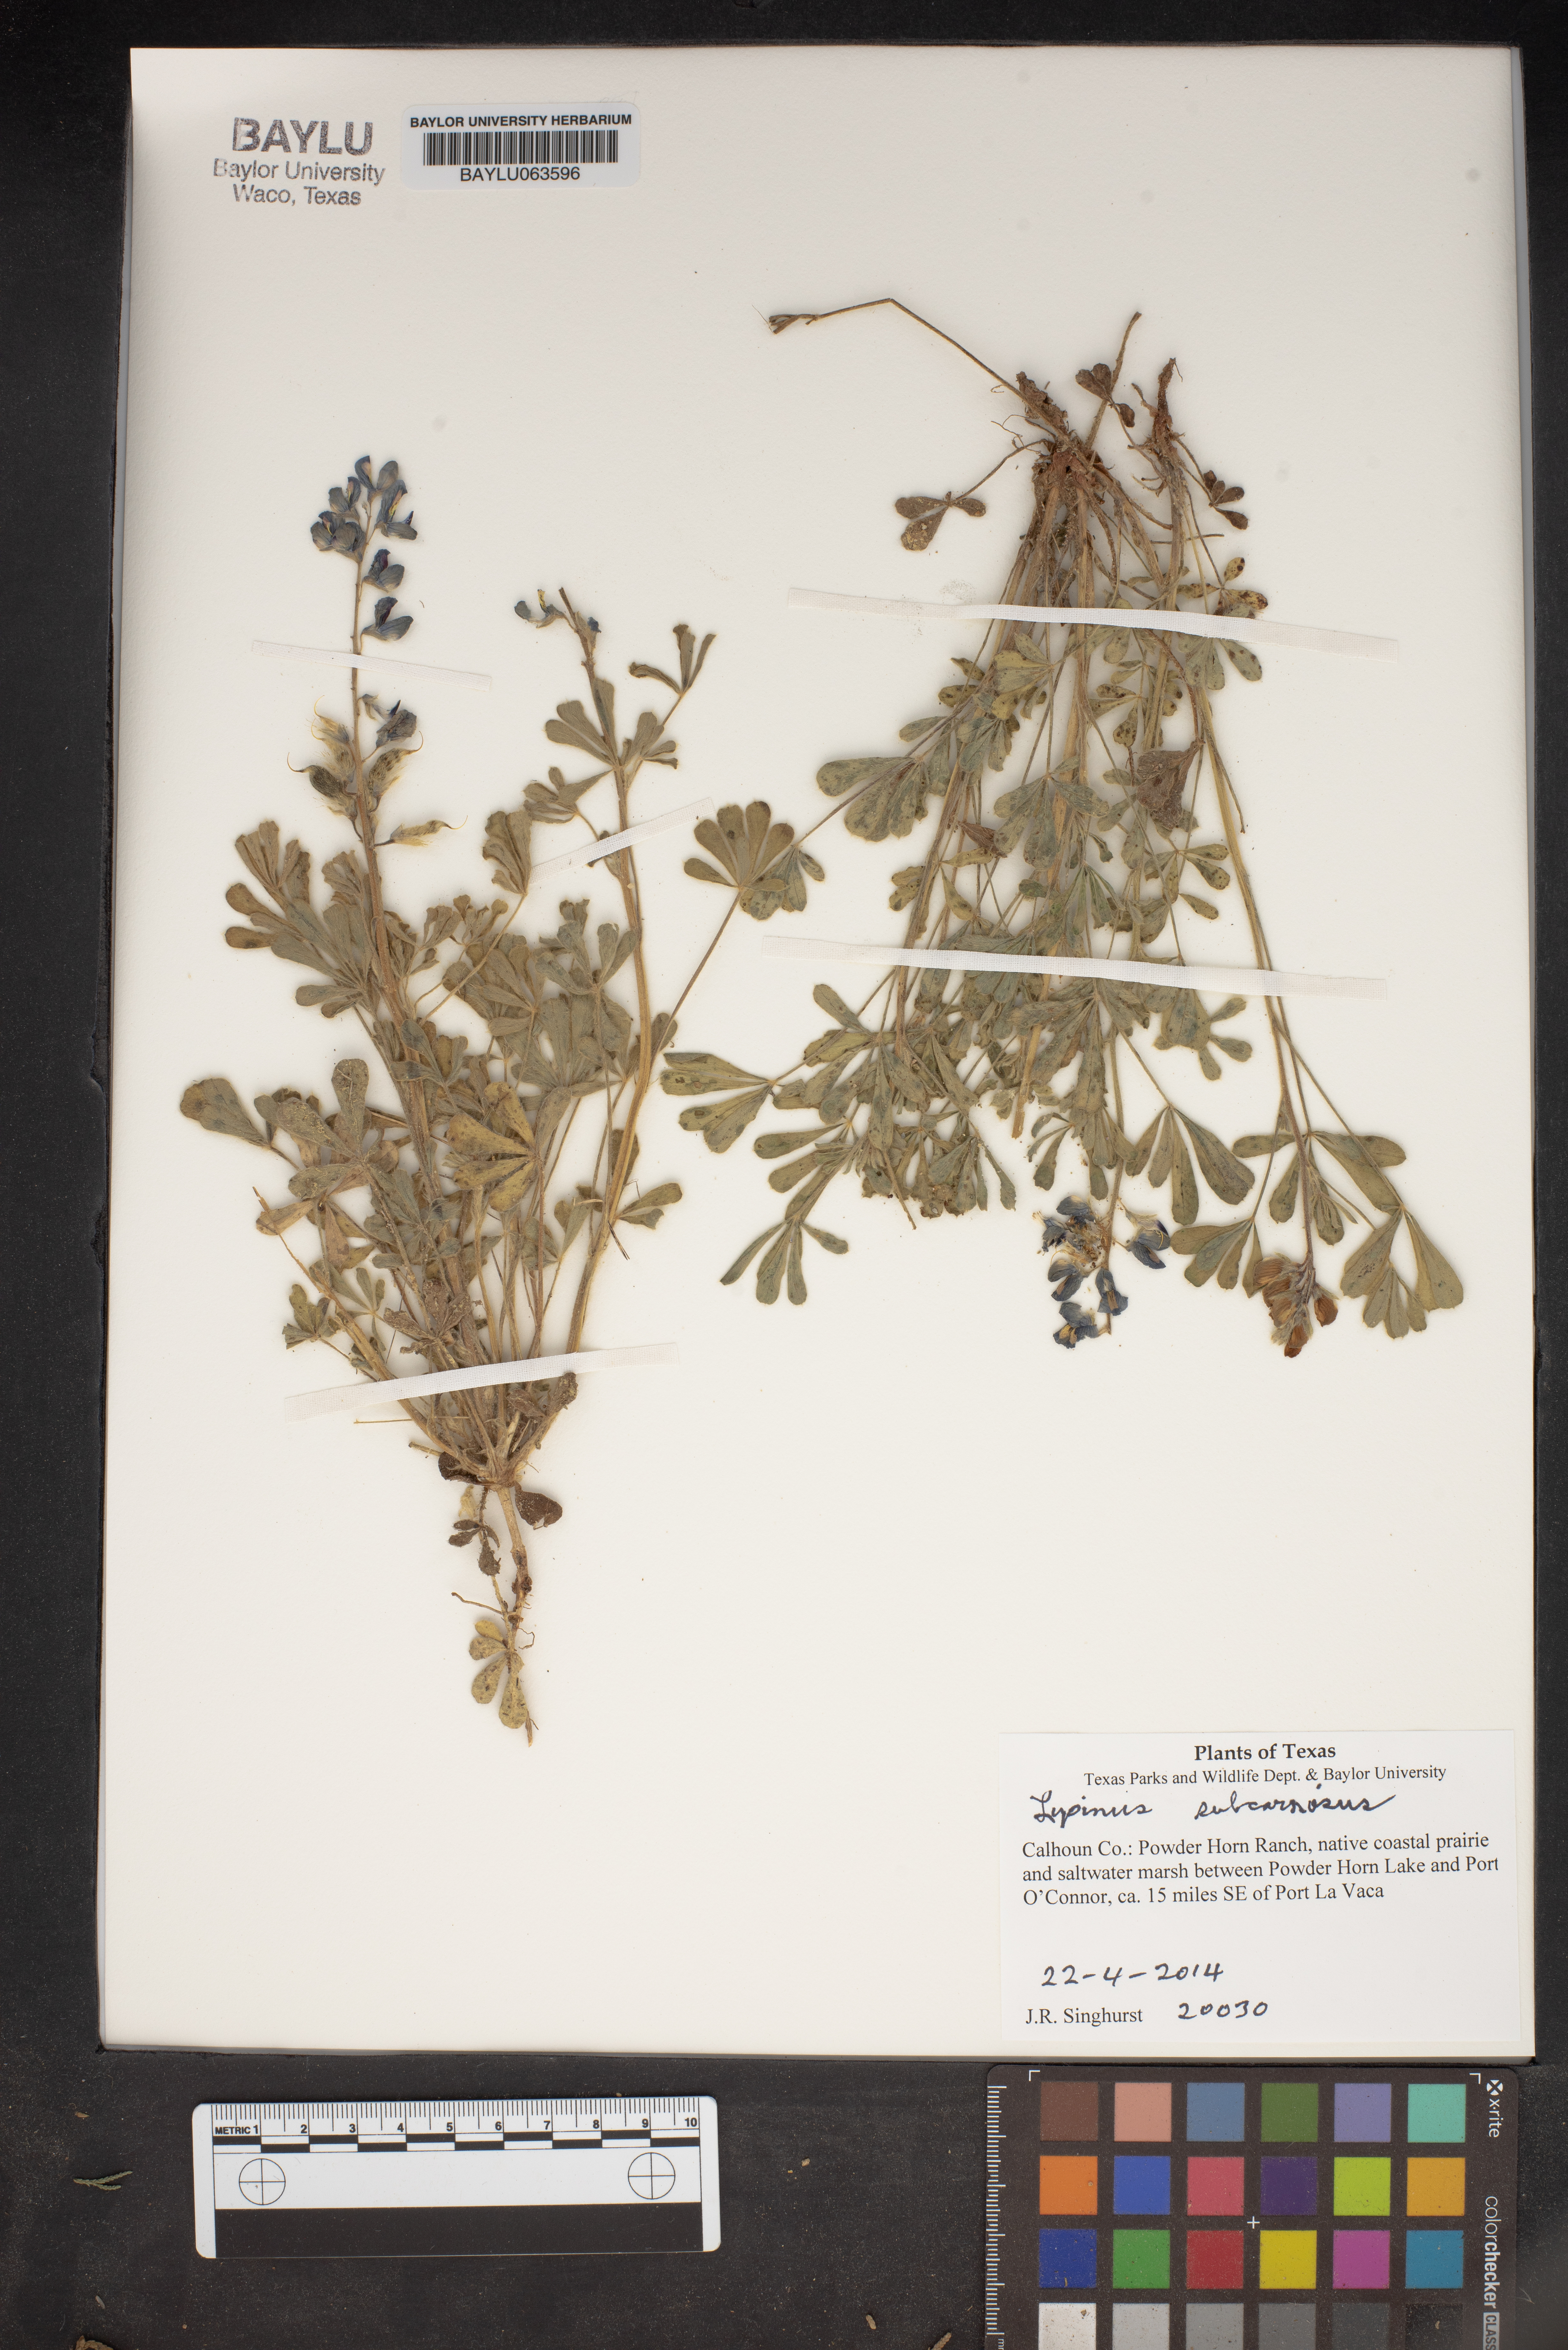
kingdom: Plantae
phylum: Tracheophyta
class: Magnoliopsida
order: Fabales
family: Fabaceae
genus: Lupinus
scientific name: Lupinus subcarnosus
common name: Texas bluebonnet
